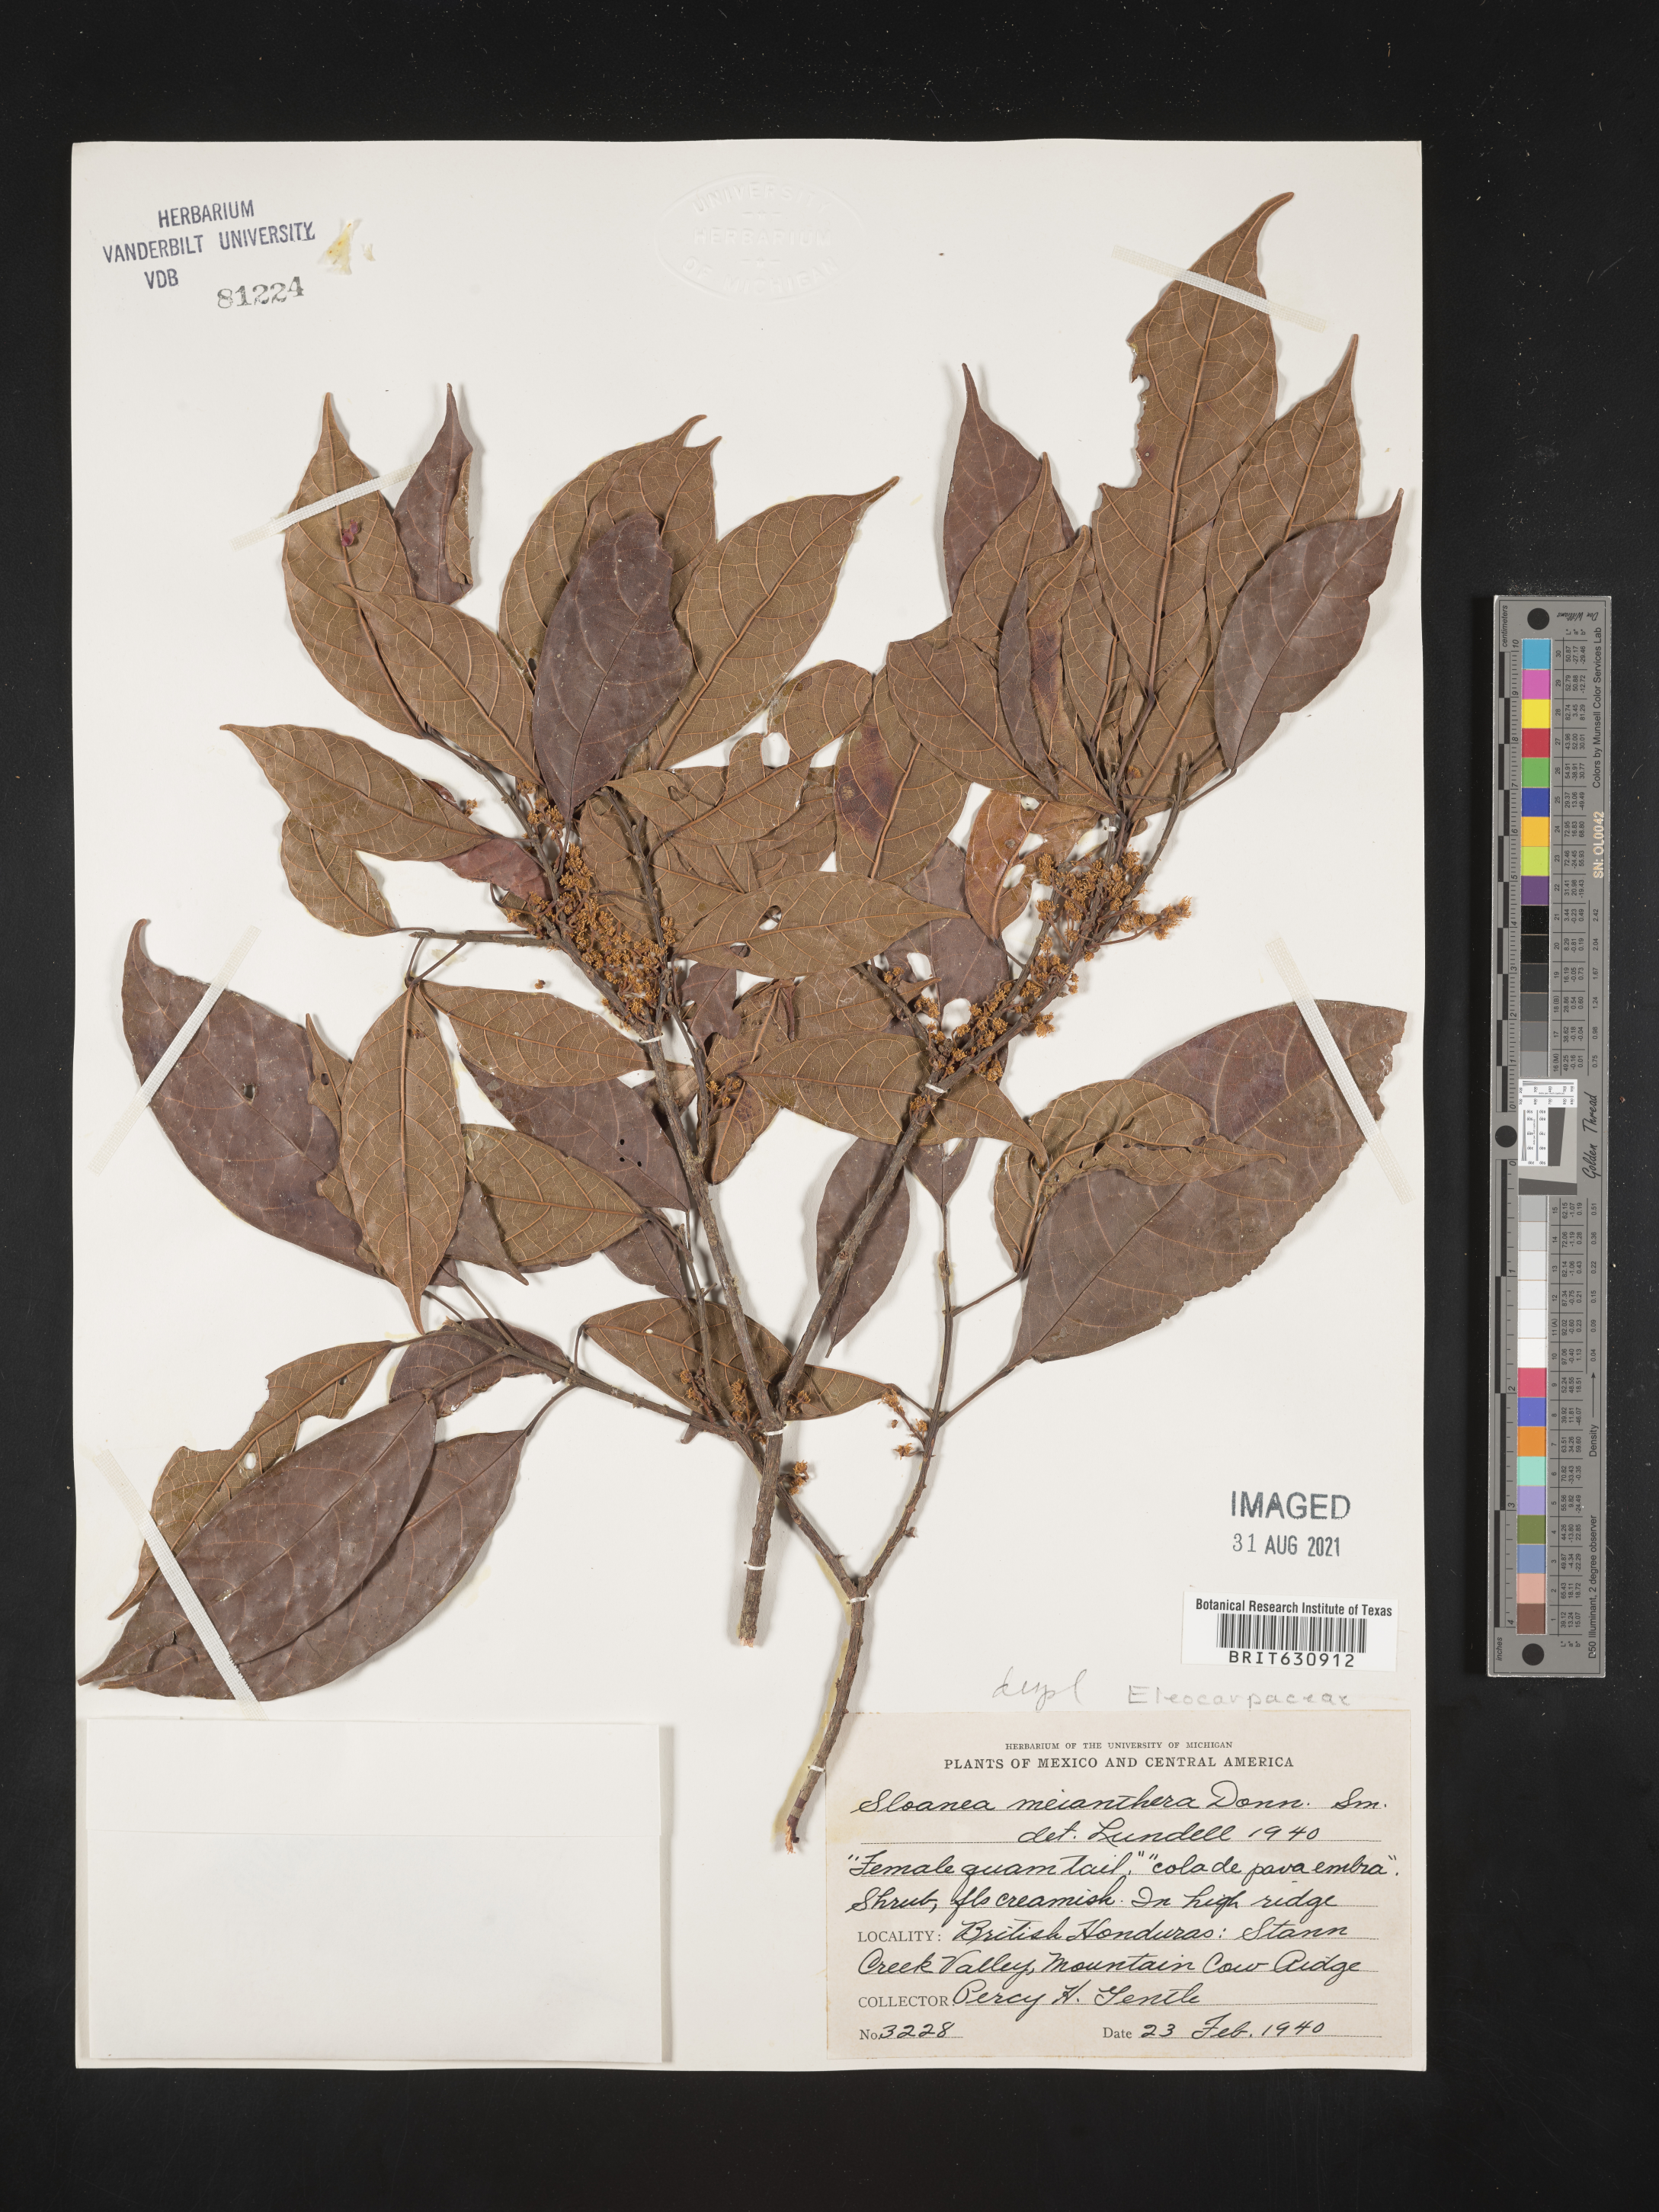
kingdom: Plantae
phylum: Tracheophyta
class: Magnoliopsida
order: Oxalidales
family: Elaeocarpaceae
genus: Sloanea
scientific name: Sloanea
